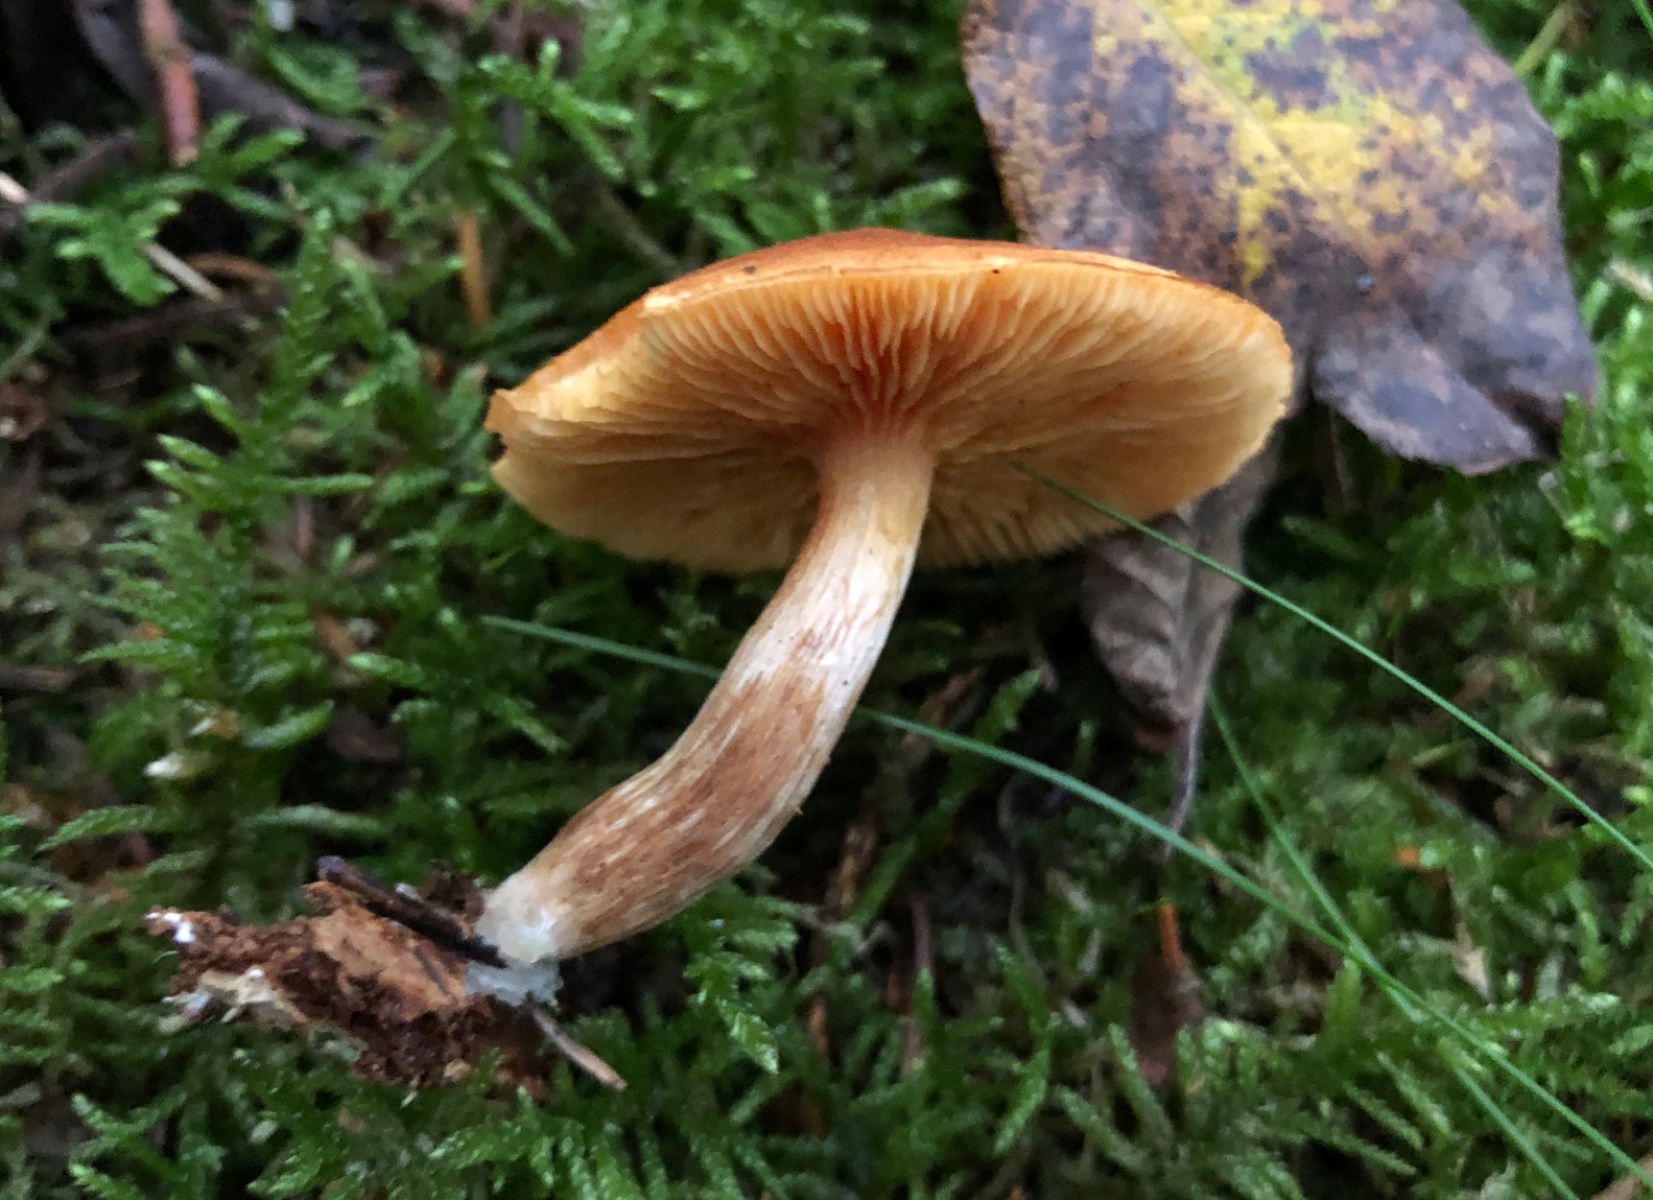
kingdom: Fungi
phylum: Basidiomycota
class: Agaricomycetes
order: Agaricales
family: Hymenogastraceae
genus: Gymnopilus
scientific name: Gymnopilus penetrans
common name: plettet flammehat
